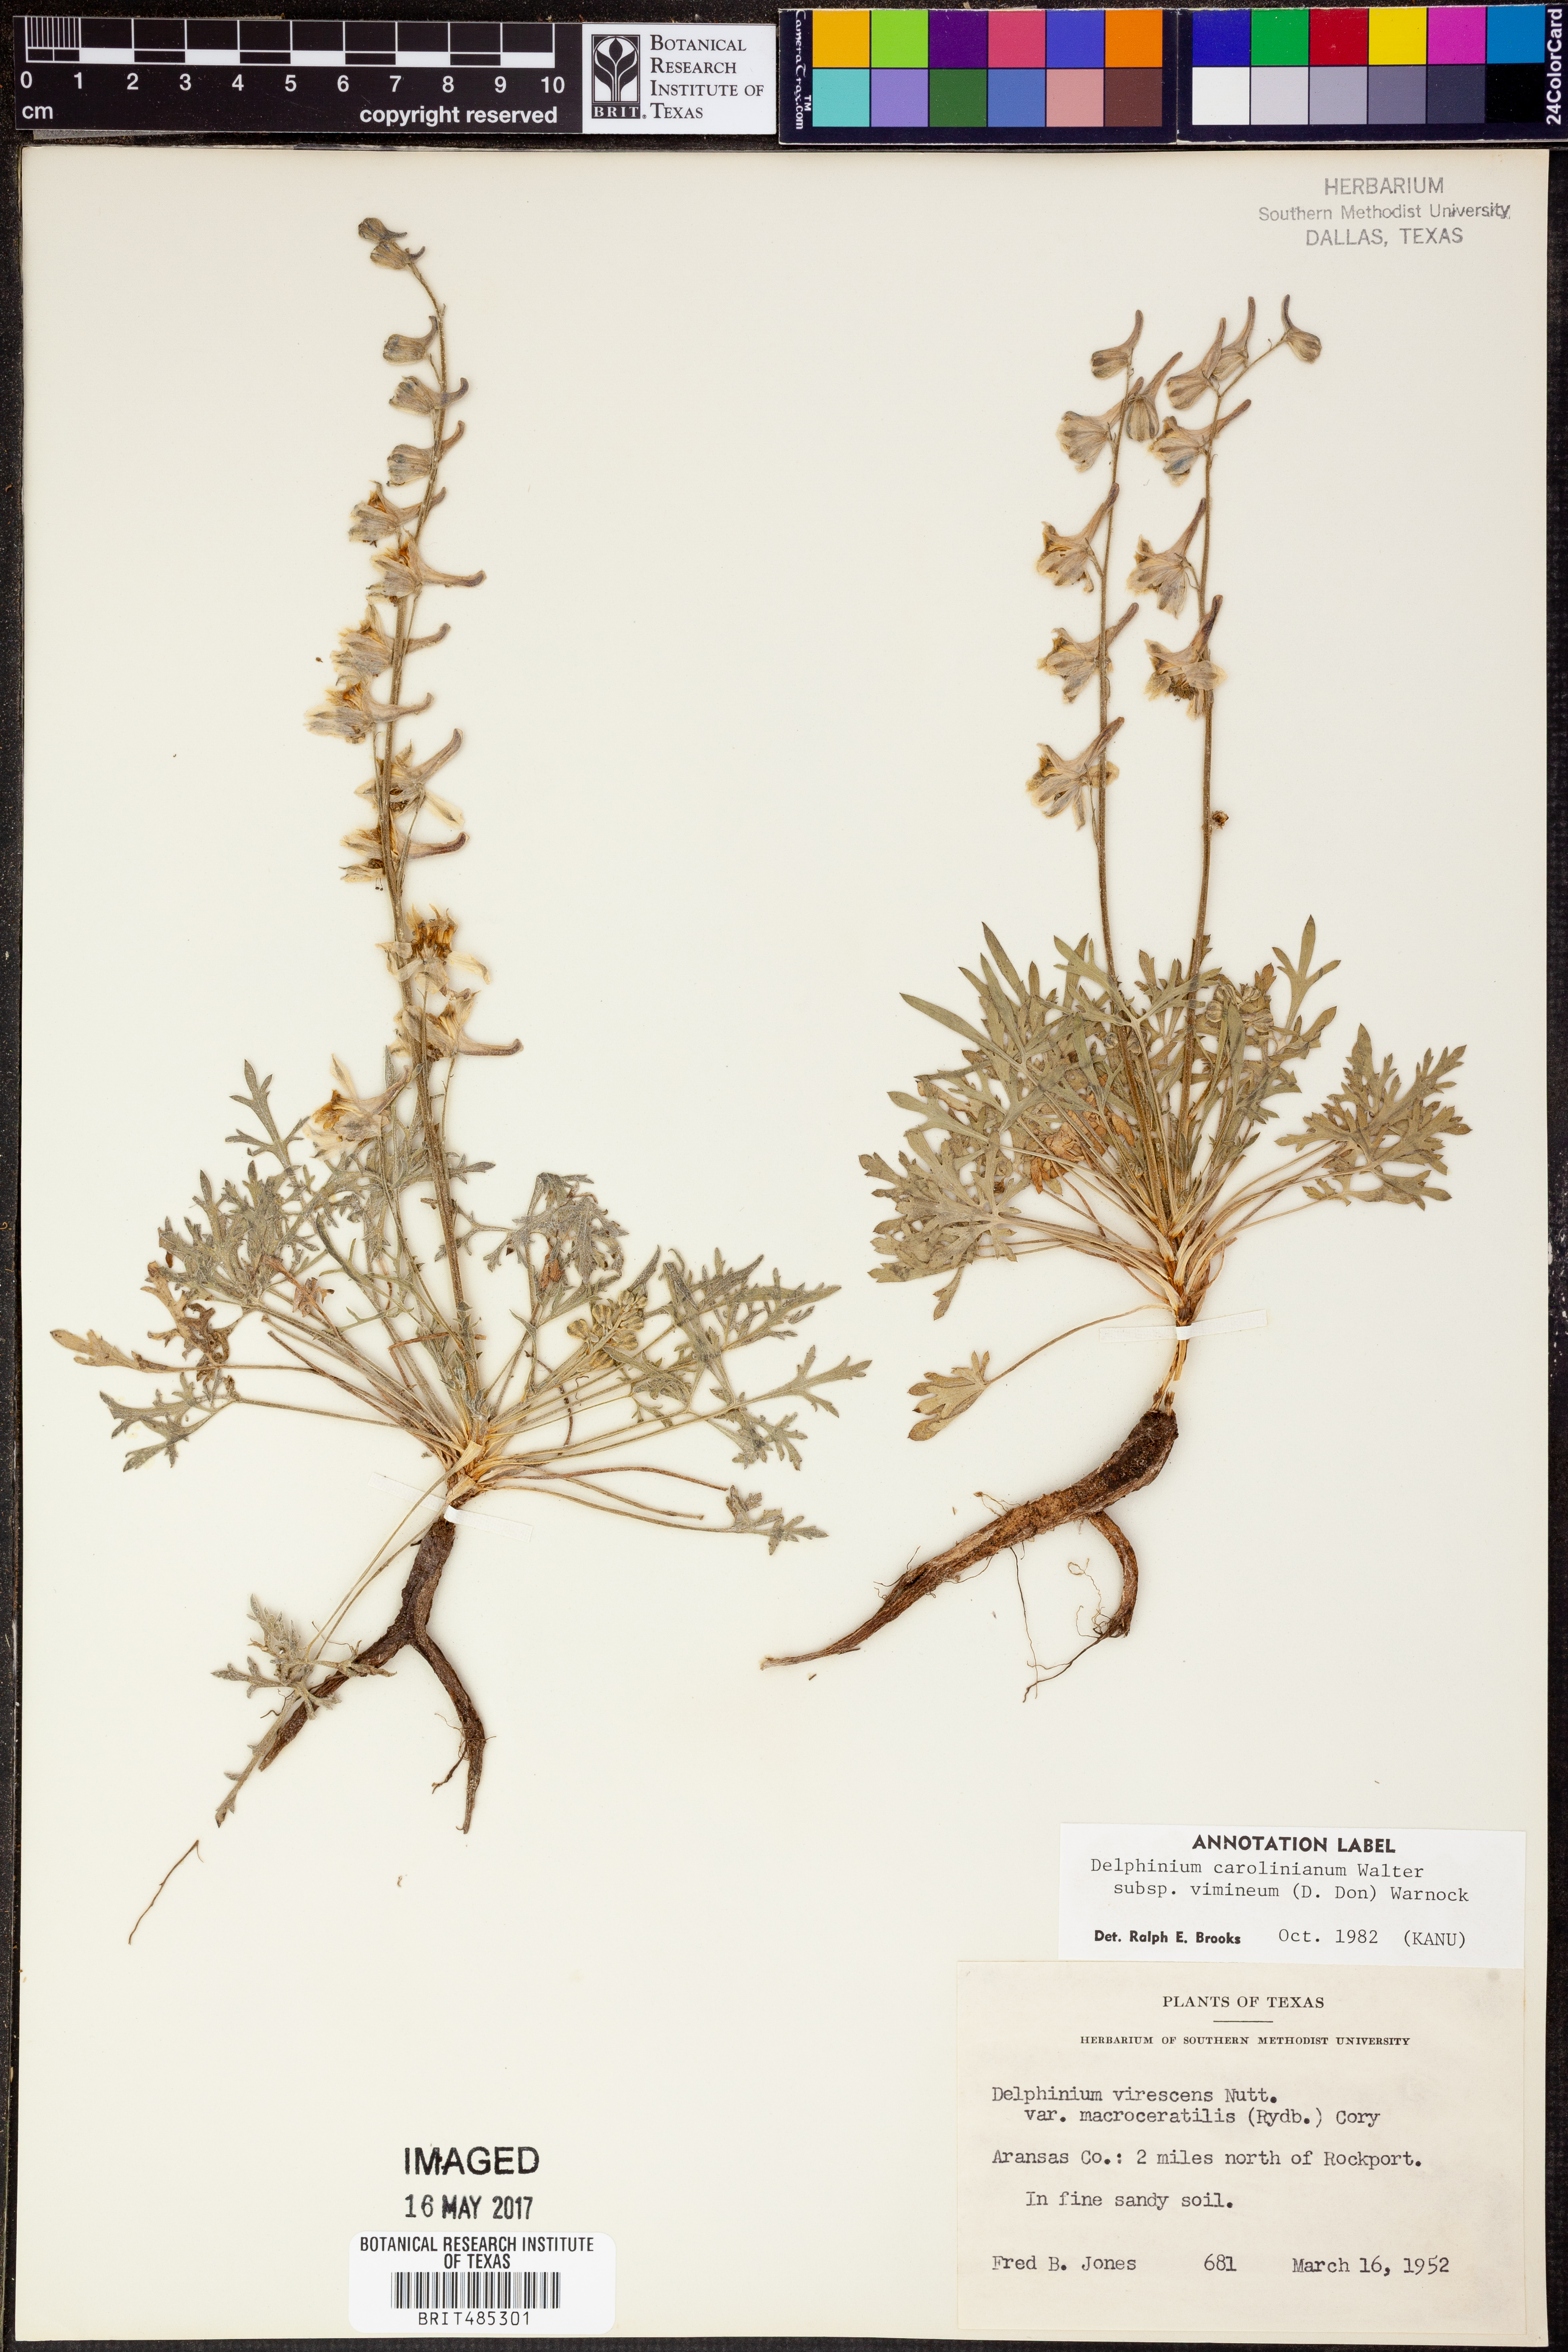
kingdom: Plantae
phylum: Tracheophyta
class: Magnoliopsida
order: Ranunculales
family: Ranunculaceae
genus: Delphinium
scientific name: Delphinium carolinianum
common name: Carolina larkspur
